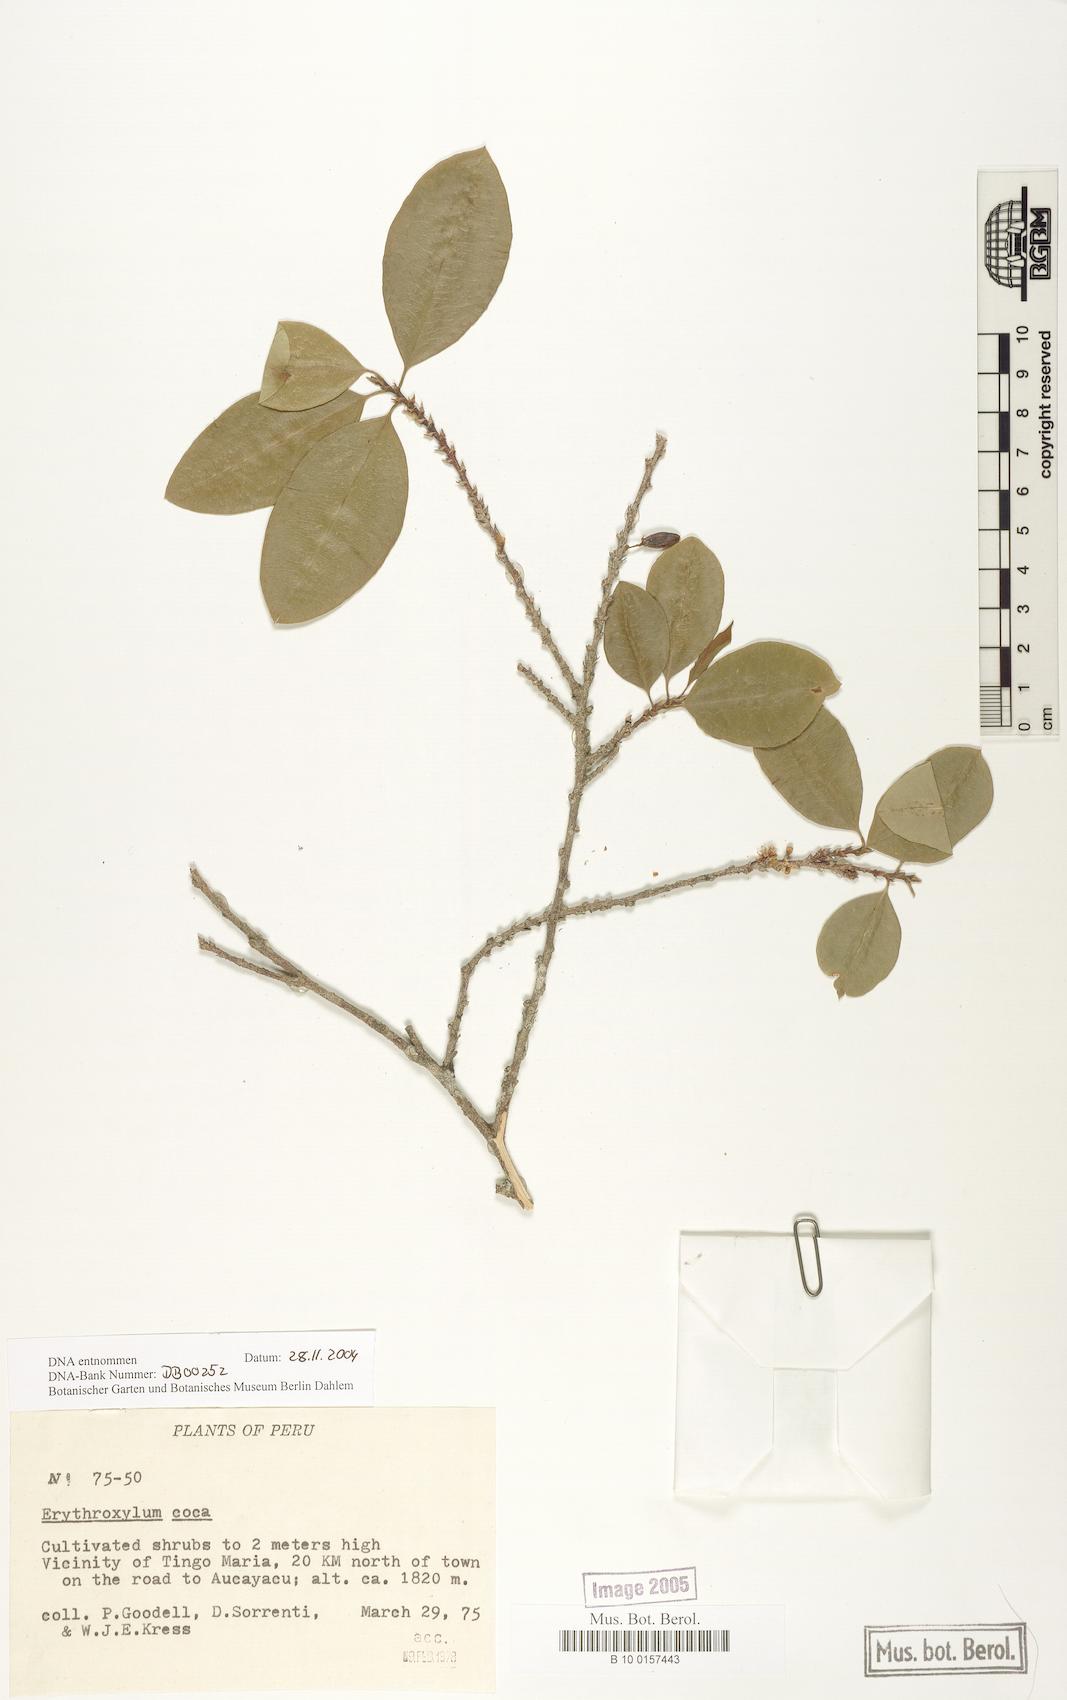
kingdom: Plantae
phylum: Tracheophyta
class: Magnoliopsida
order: Malpighiales
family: Erythroxylaceae
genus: Erythroxylum
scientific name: Erythroxylum coca
